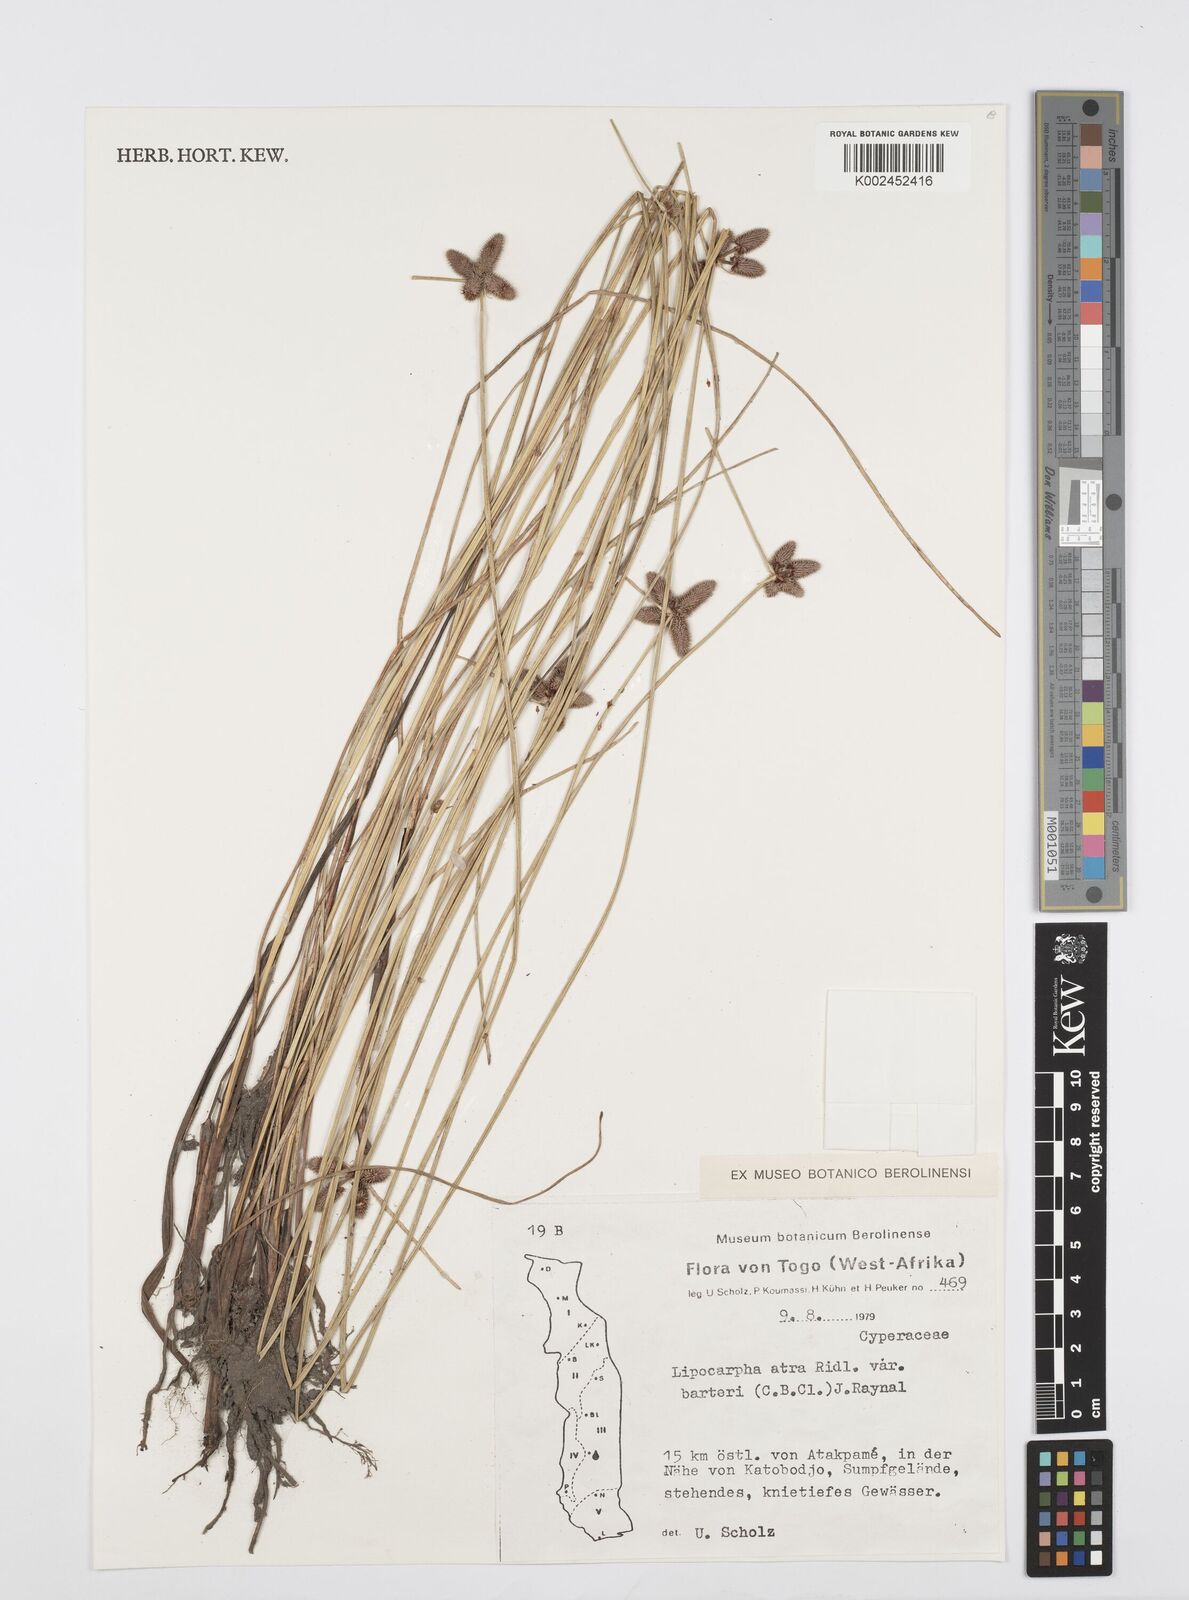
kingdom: Plantae
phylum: Tracheophyta
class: Liliopsida
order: Poales
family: Cyperaceae
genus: Cyperus
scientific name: Cyperus pustulatus
